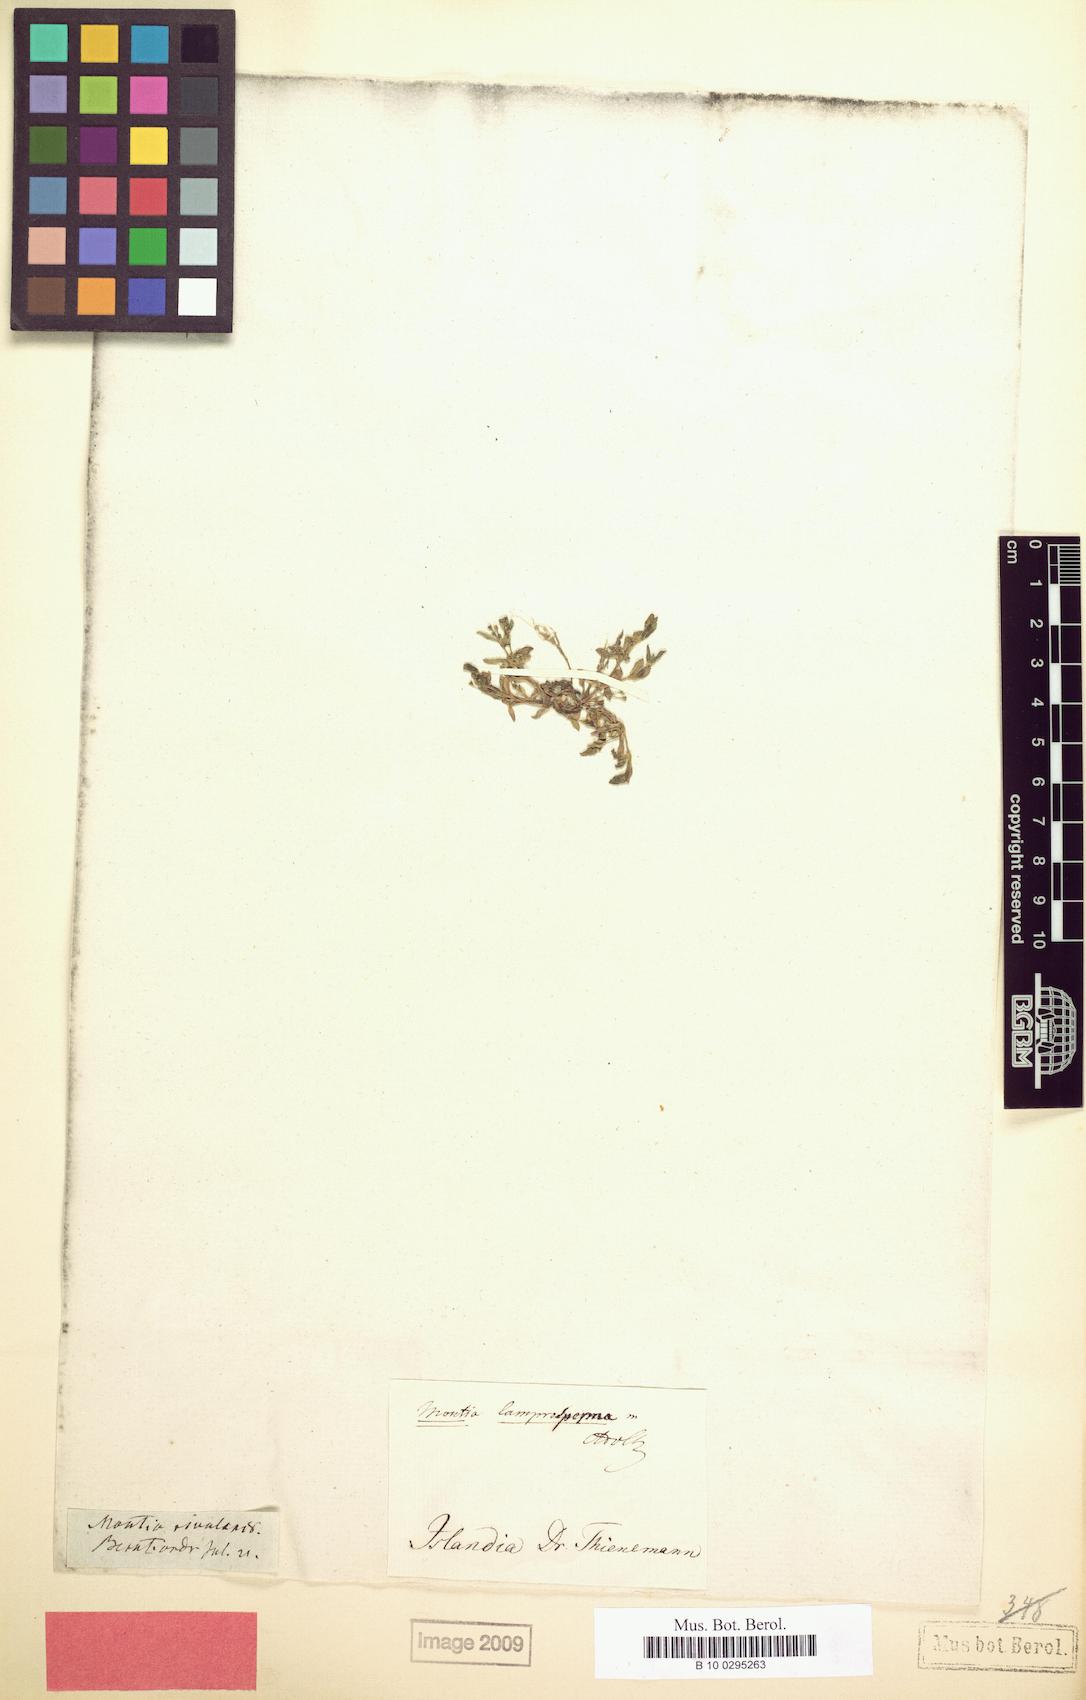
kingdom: Plantae
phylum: Tracheophyta
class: Magnoliopsida
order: Caryophyllales
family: Montiaceae
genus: Montia
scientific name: Montia fontana
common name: Blinks
